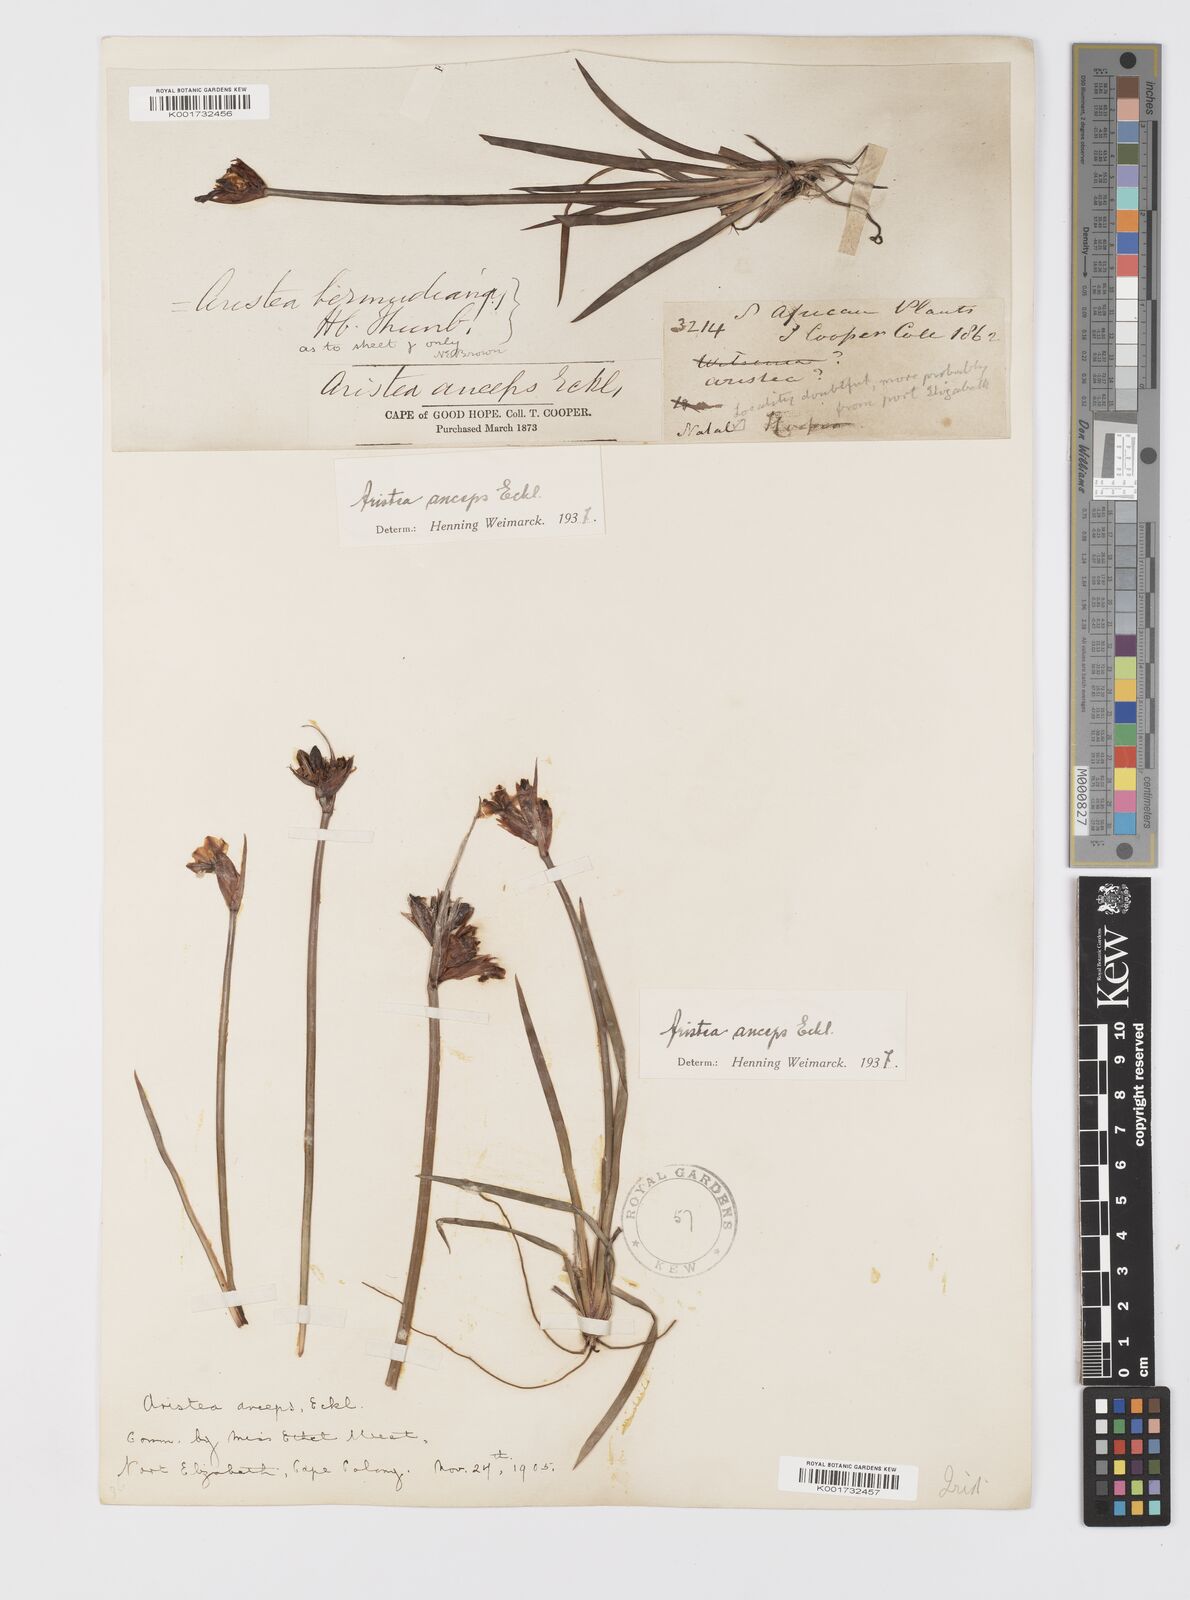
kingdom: Plantae
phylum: Tracheophyta
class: Liliopsida
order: Asparagales
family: Iridaceae
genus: Aristea
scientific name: Aristea anceps
